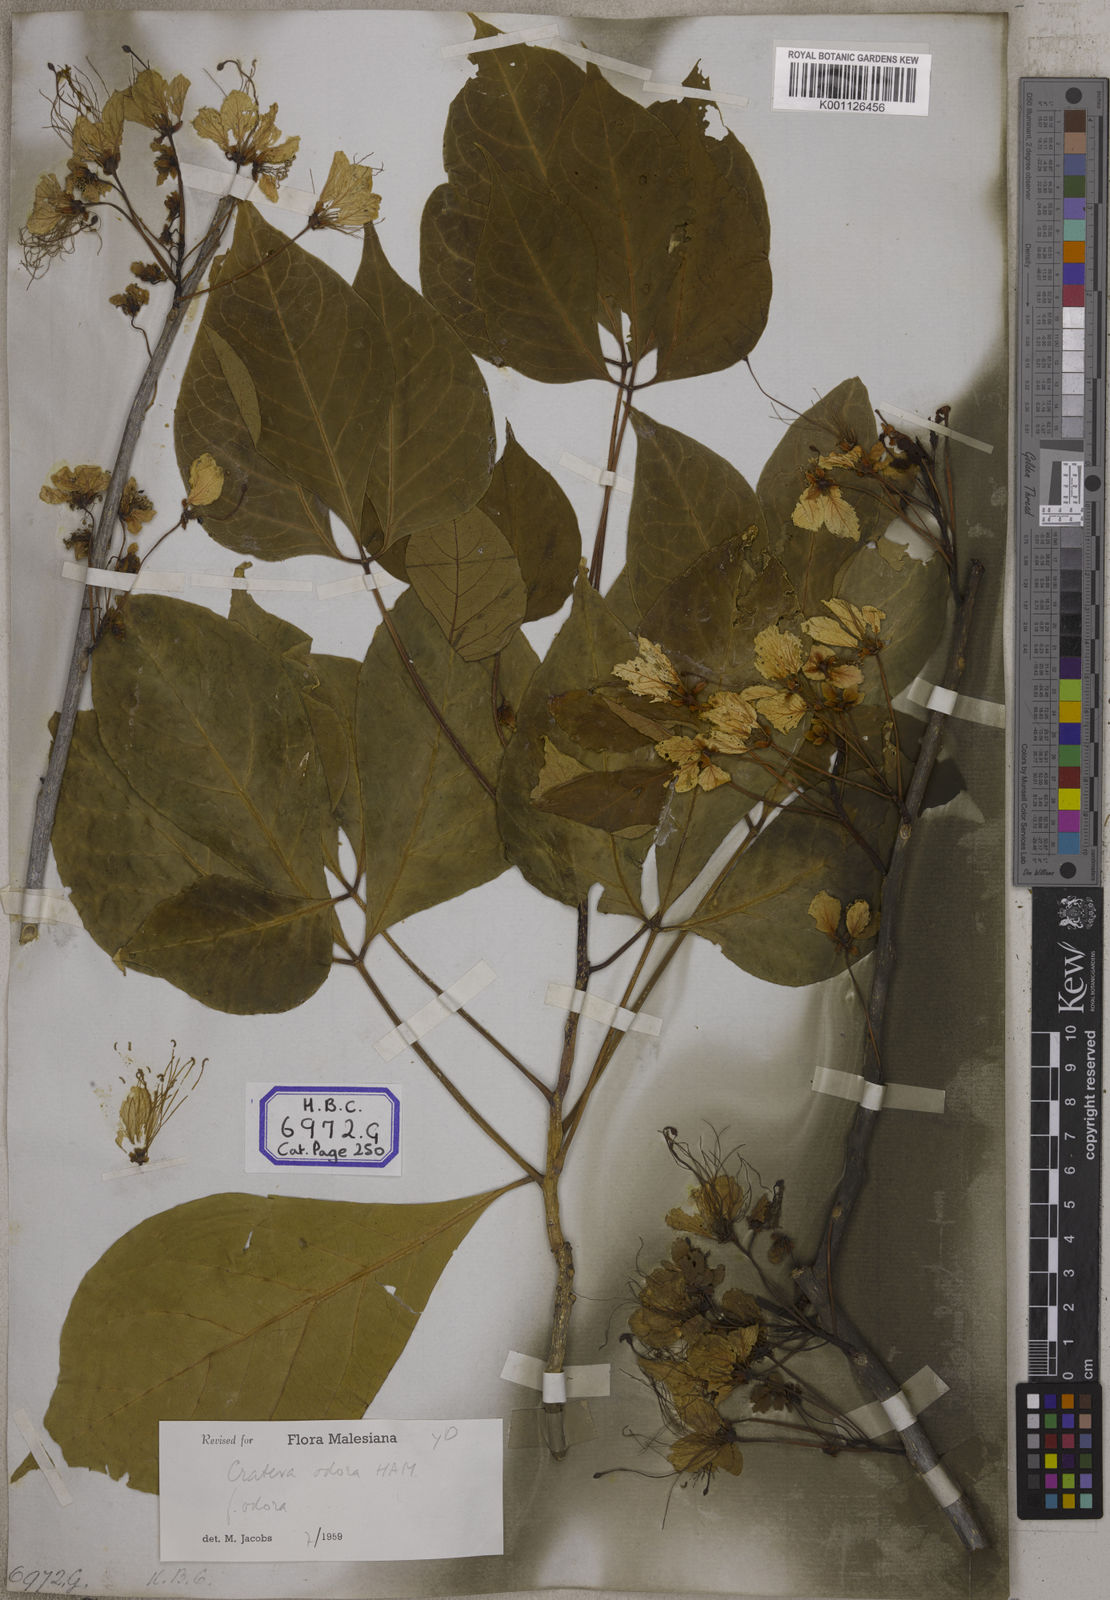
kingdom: Plantae
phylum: Tracheophyta
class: Magnoliopsida
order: Brassicales
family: Capparaceae
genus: Crateva
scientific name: Crateva religiosa
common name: March dalur
